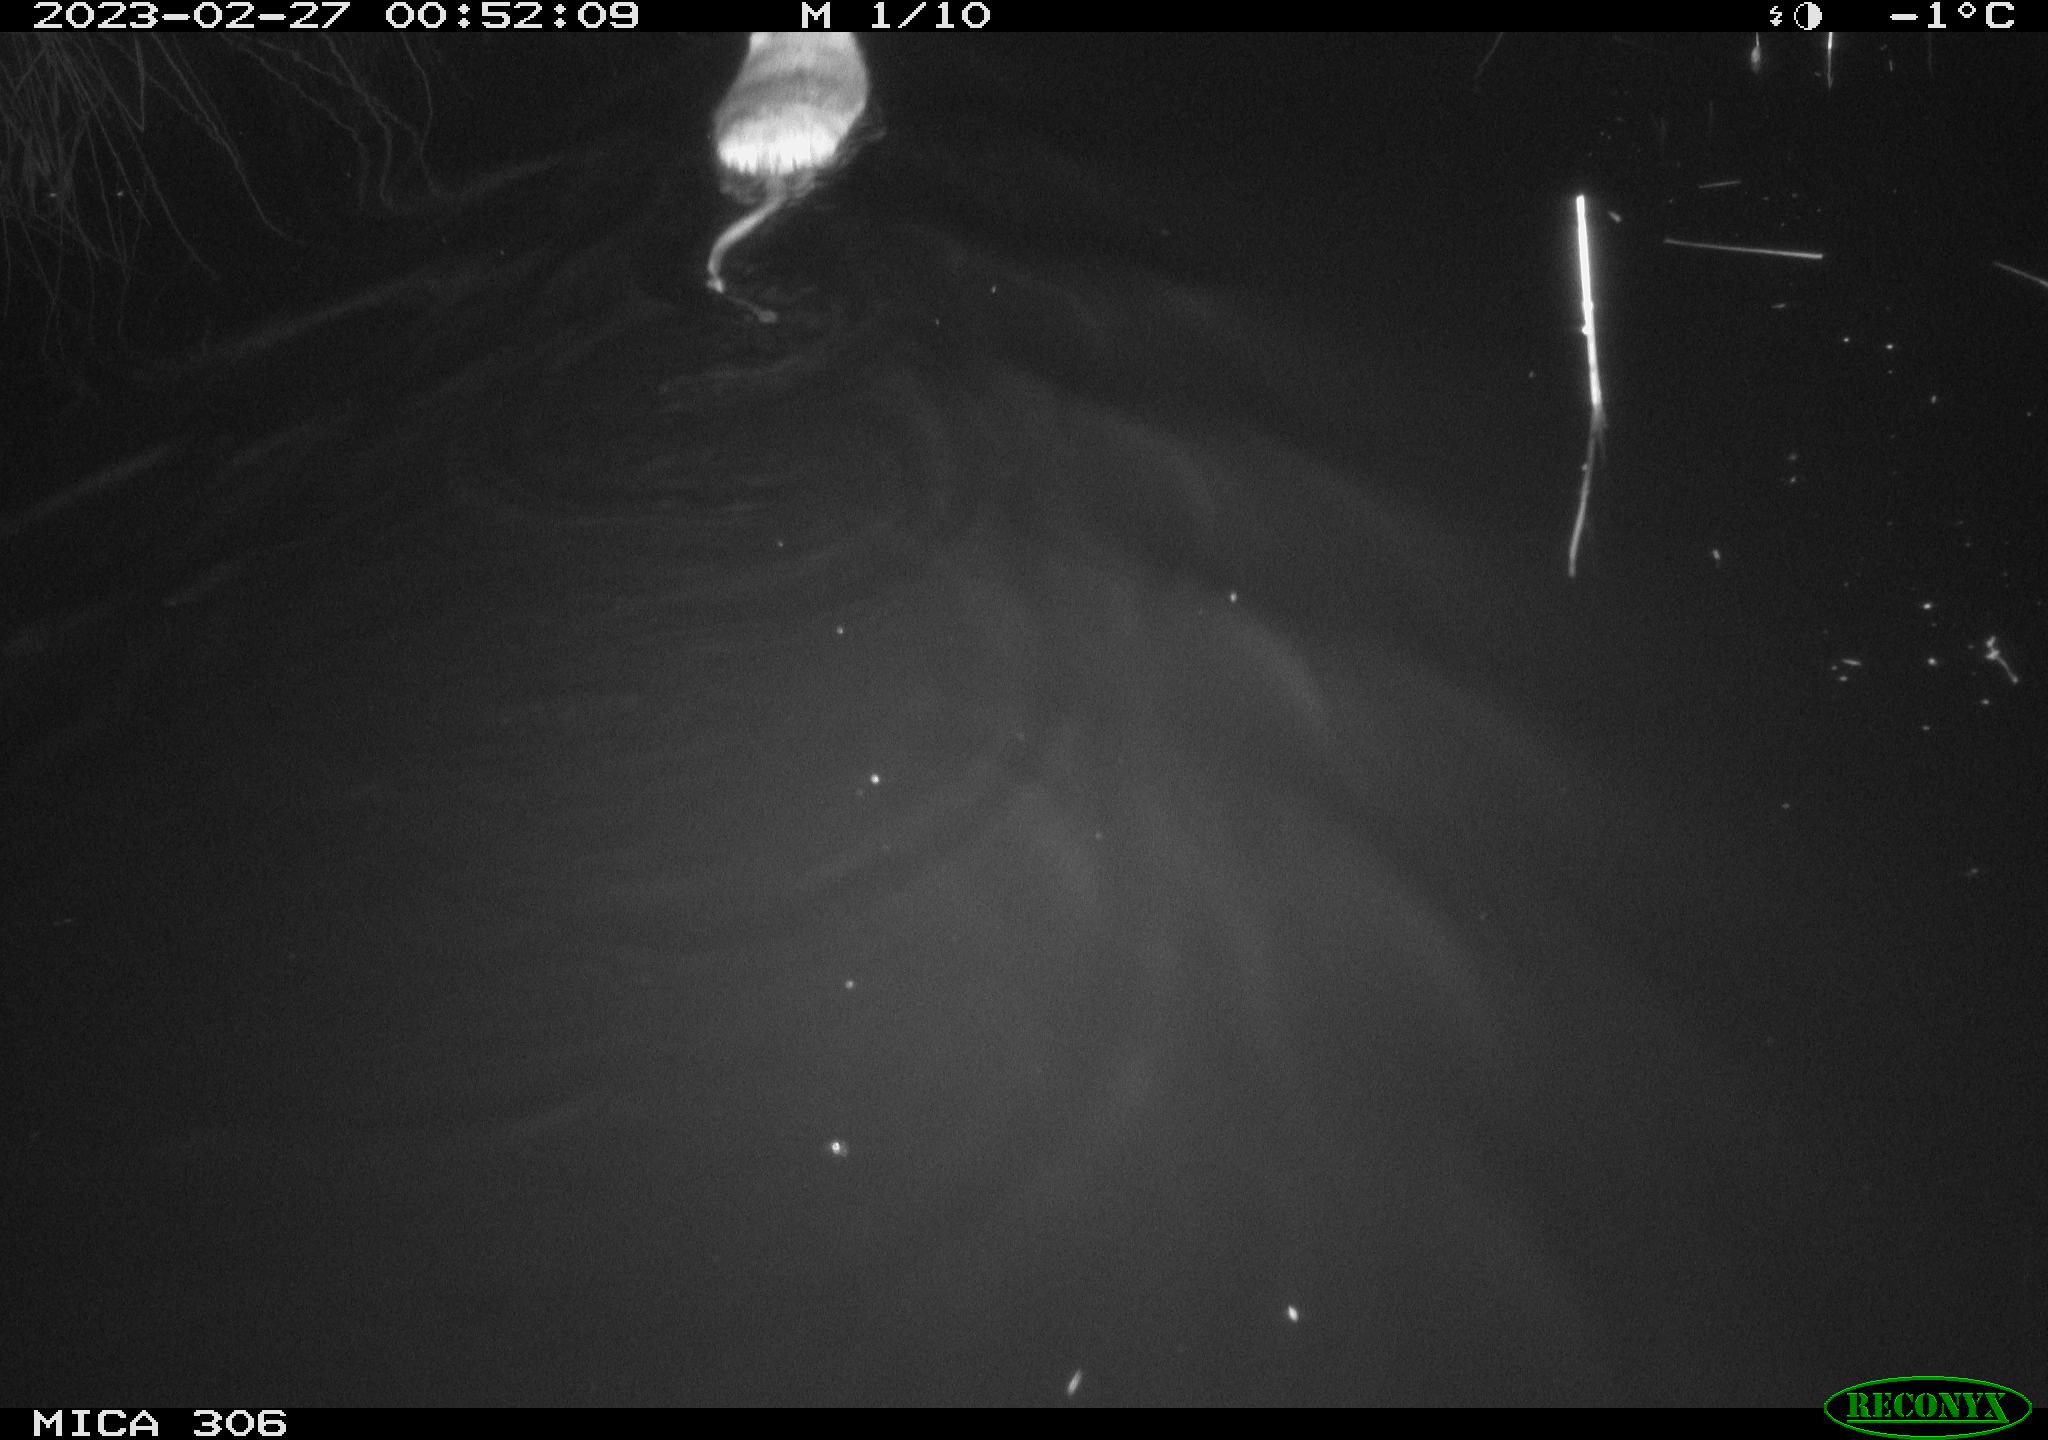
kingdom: Animalia
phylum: Chordata
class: Mammalia
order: Rodentia
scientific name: Rodentia
